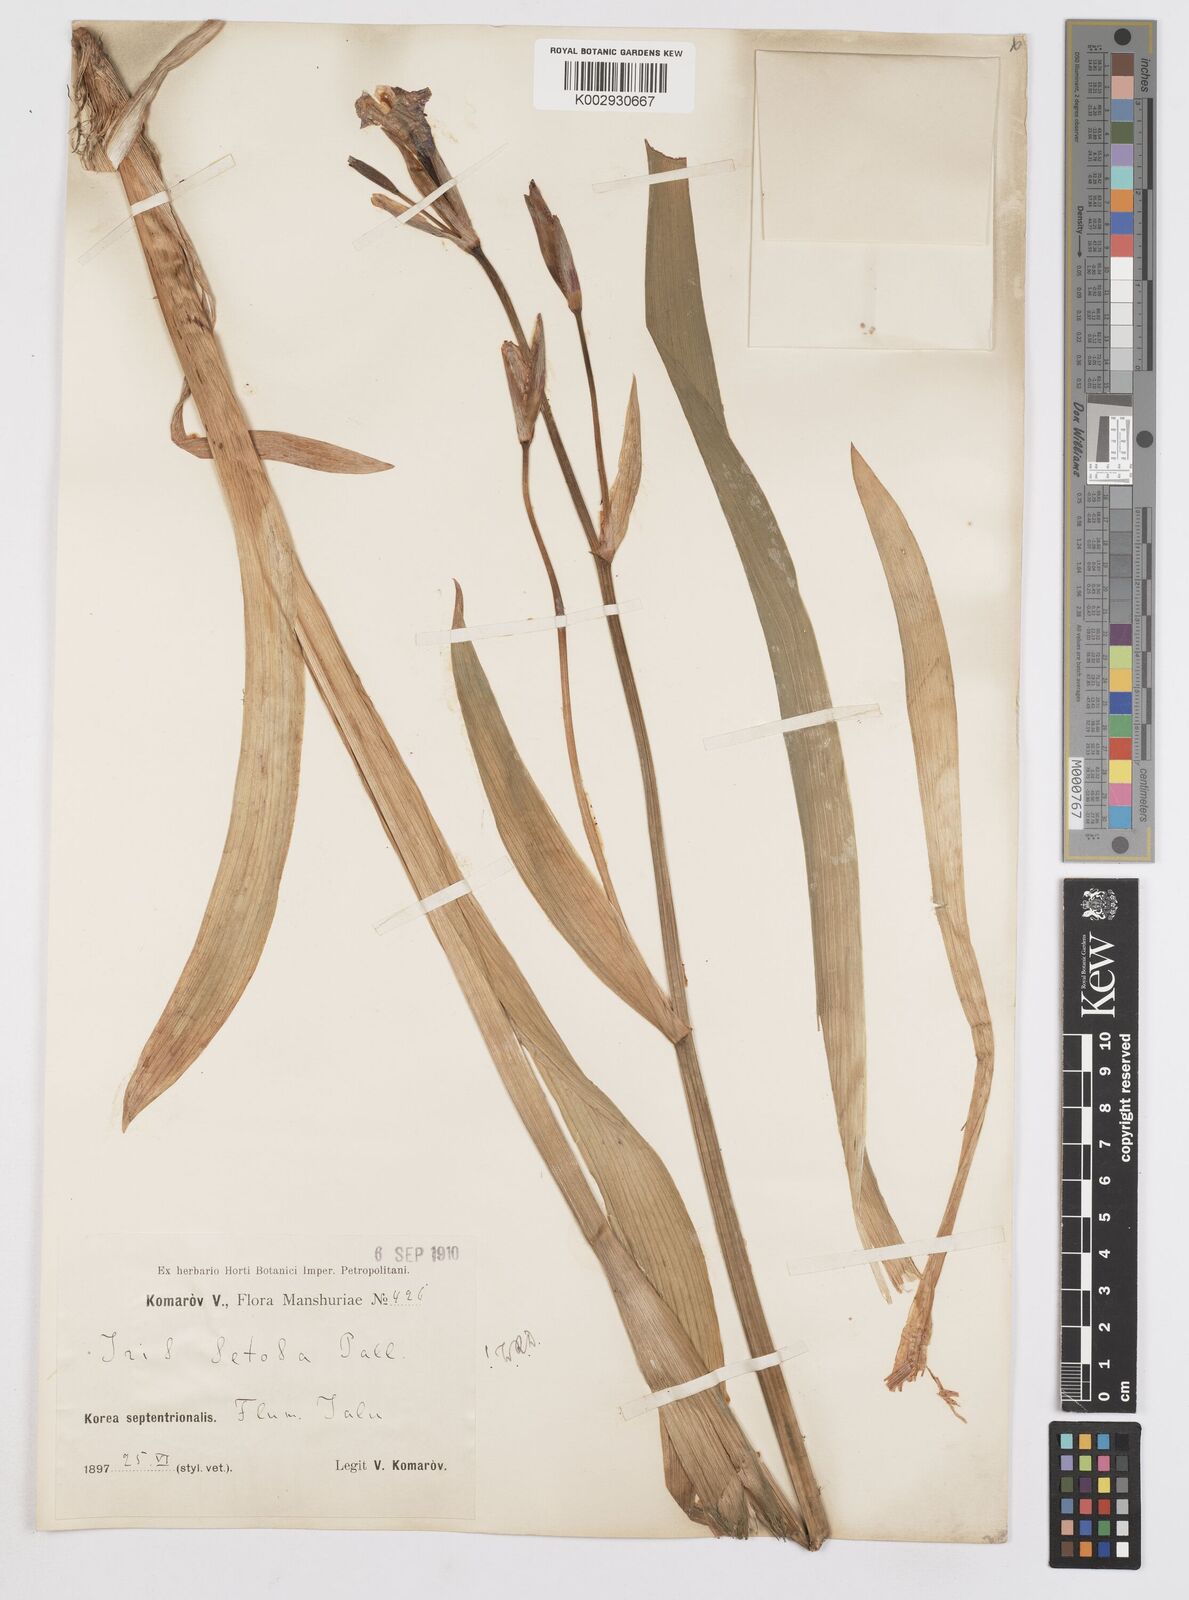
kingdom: Plantae
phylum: Tracheophyta
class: Liliopsida
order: Asparagales
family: Iridaceae
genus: Iris
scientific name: Iris setosa
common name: Arctic blue flag
